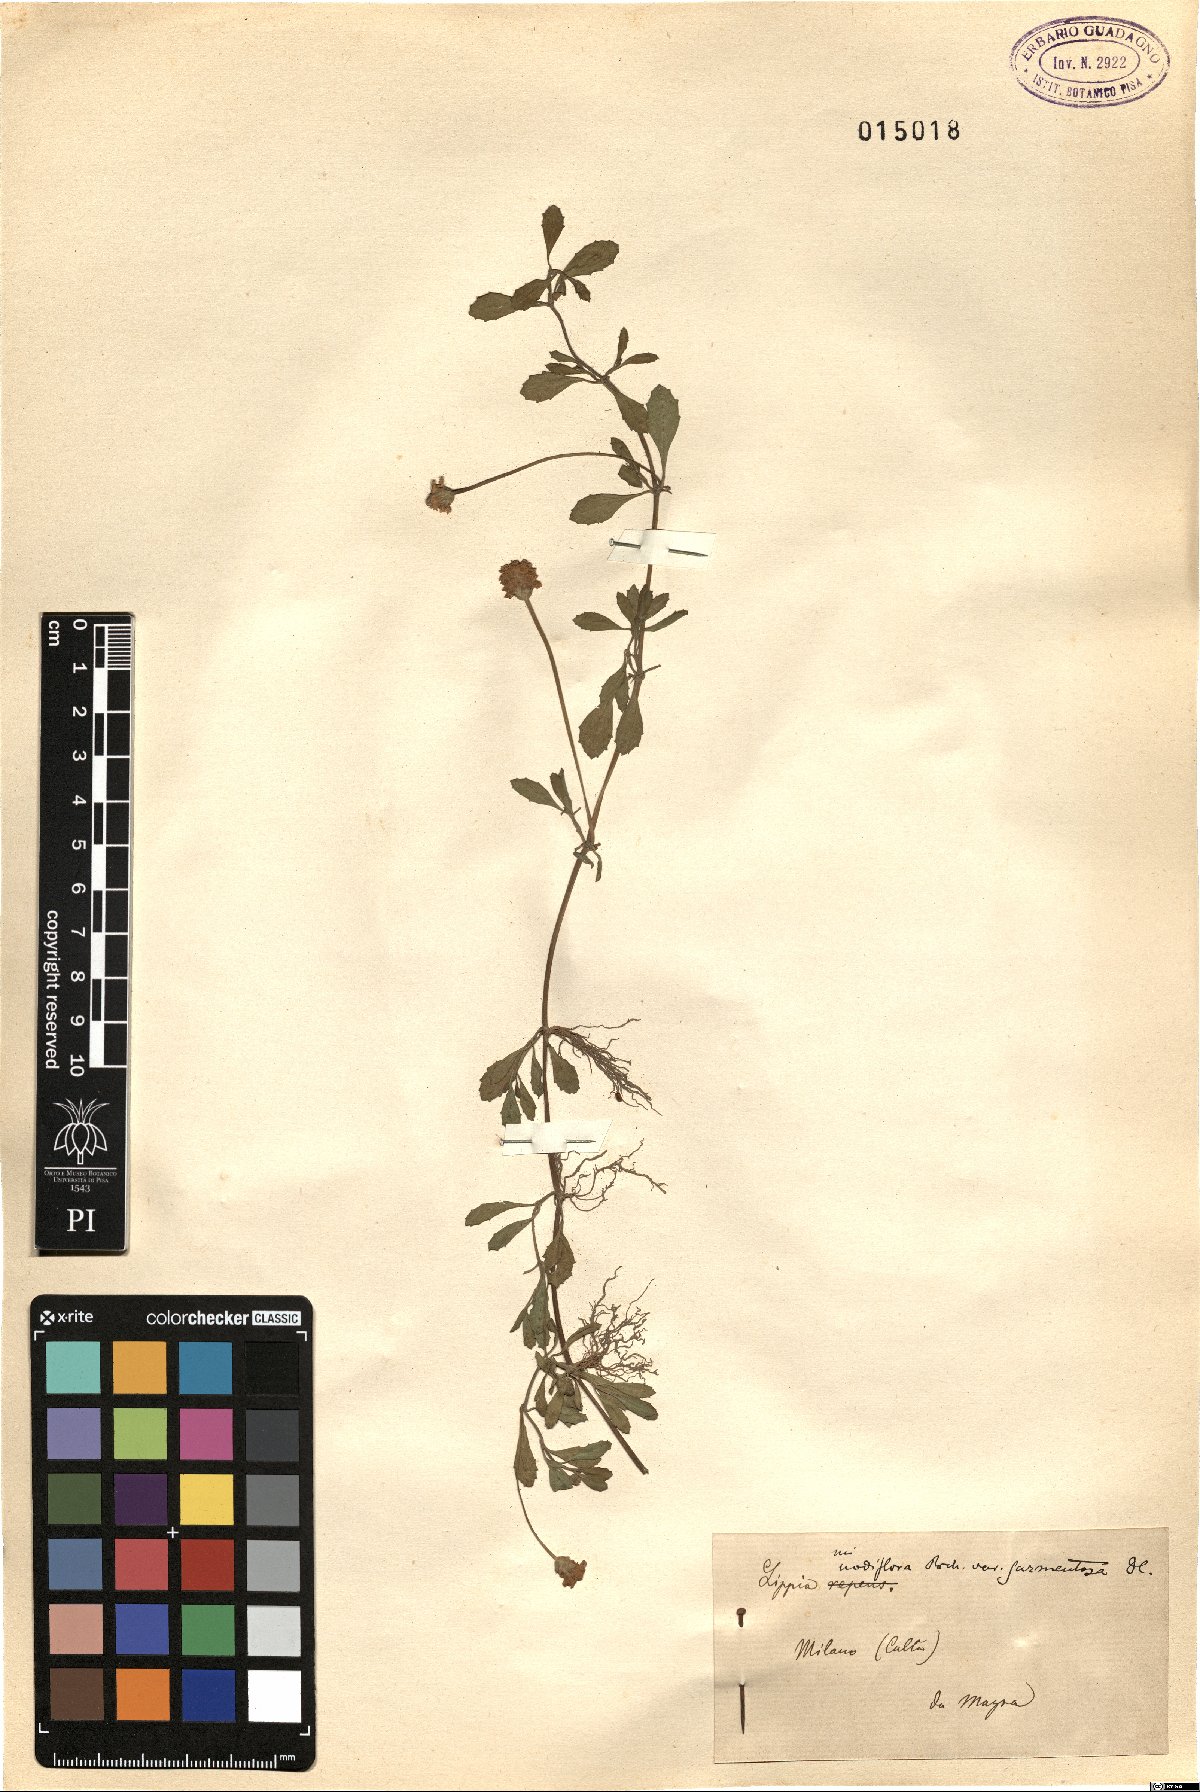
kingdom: Plantae
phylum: Tracheophyta
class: Magnoliopsida
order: Lamiales
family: Verbenaceae
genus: Phyla
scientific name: Phyla nodiflora
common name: Frogfruit
